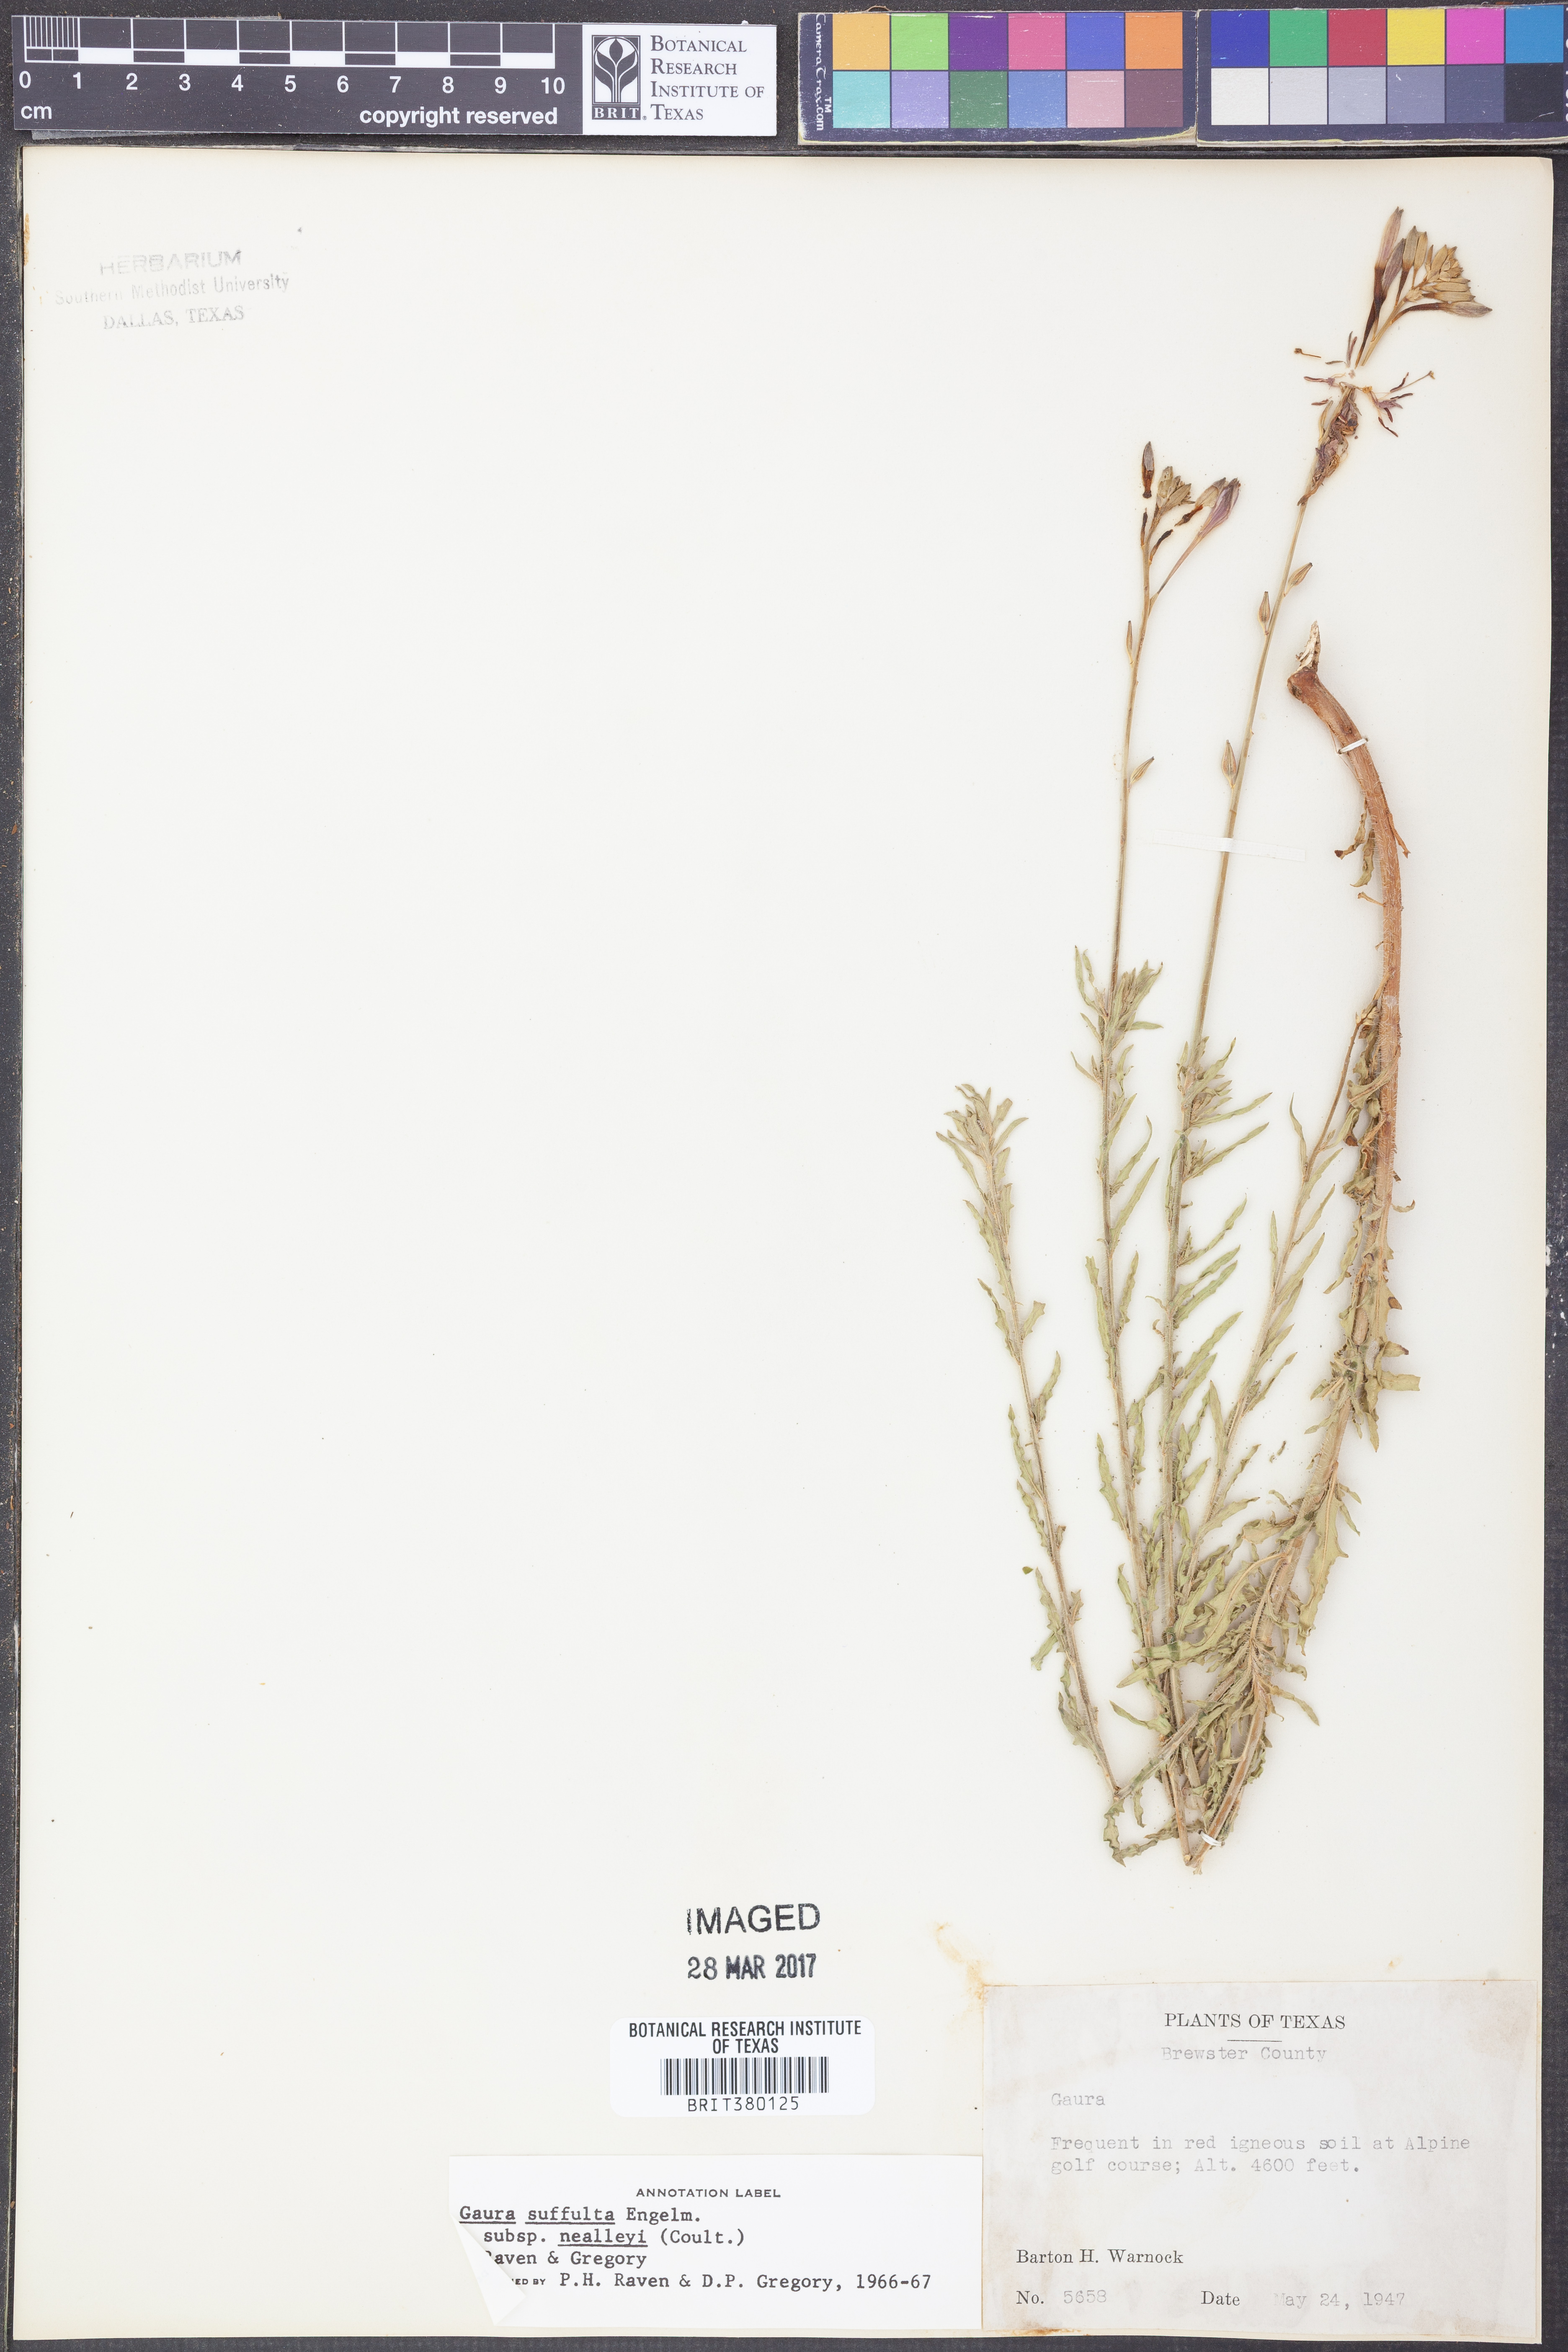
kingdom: Plantae
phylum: Tracheophyta
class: Magnoliopsida
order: Myrtales
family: Onagraceae
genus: Oenothera
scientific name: Oenothera nealleyi
